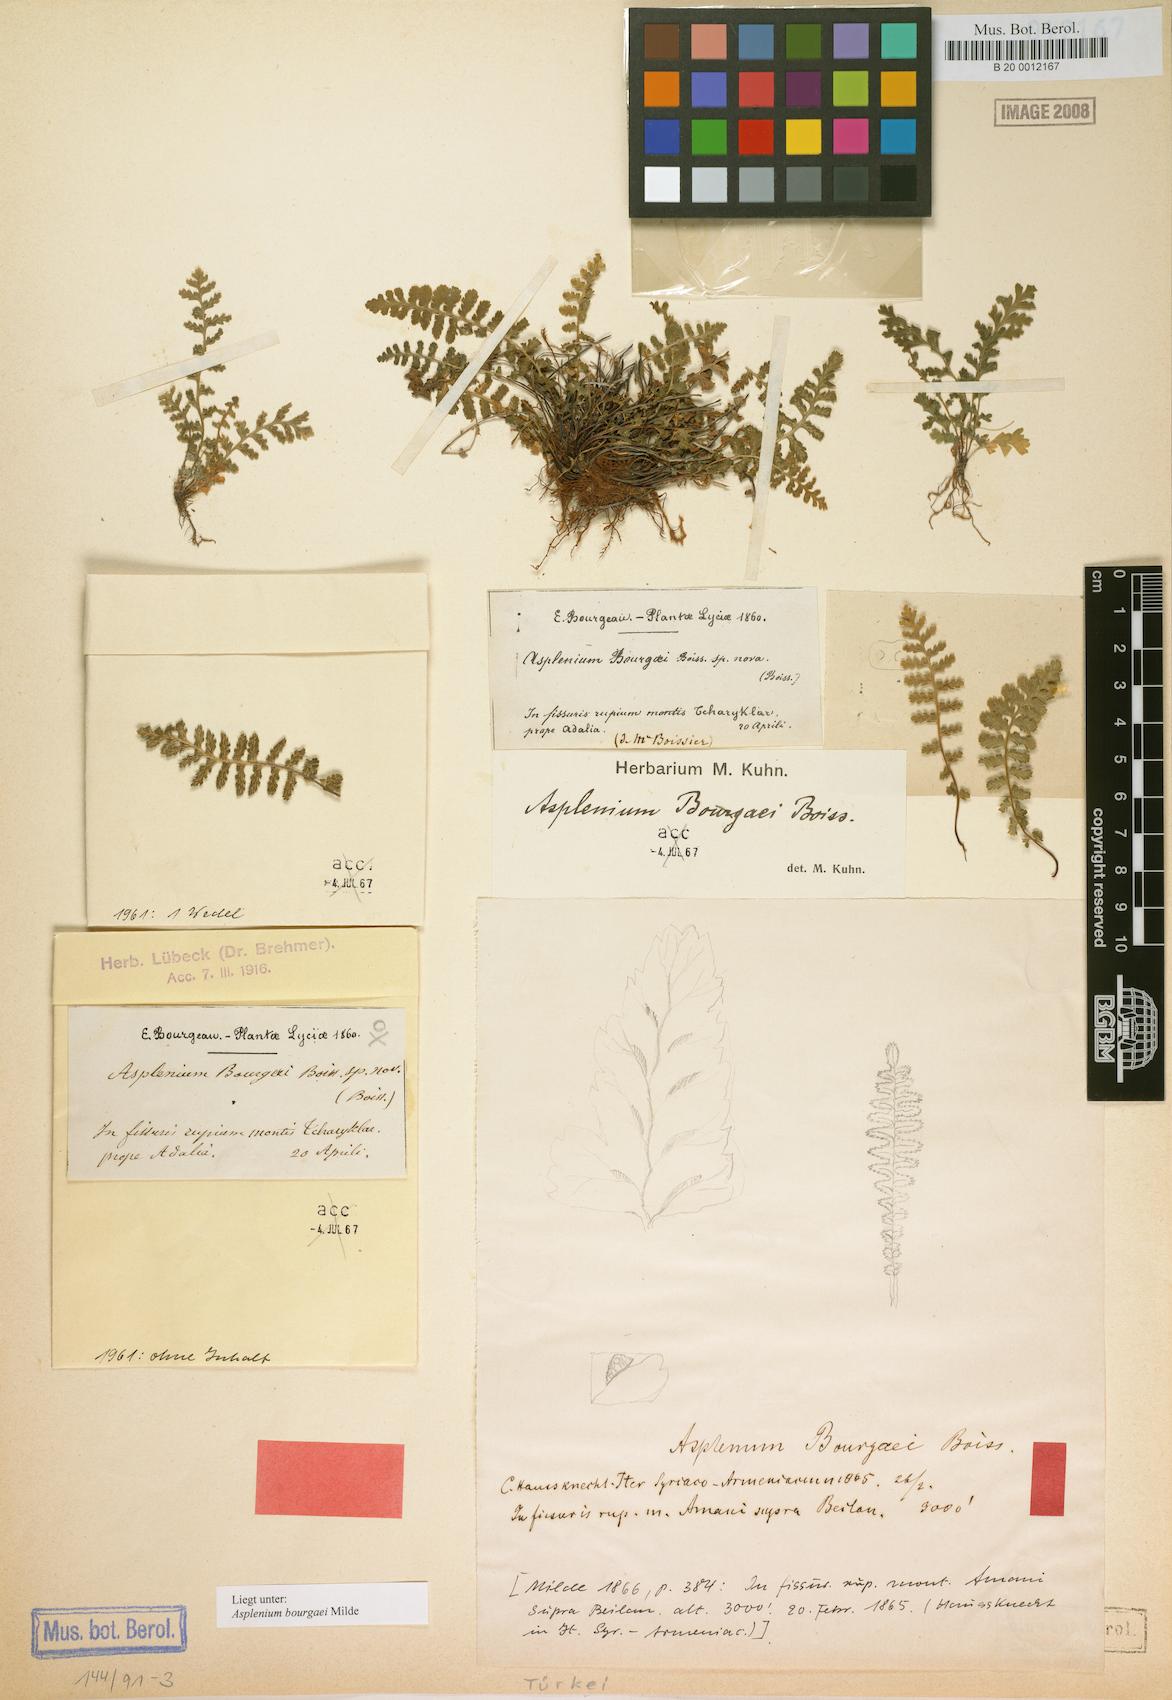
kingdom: Plantae
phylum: Tracheophyta
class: Polypodiopsida
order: Polypodiales
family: Aspleniaceae
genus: Asplenium
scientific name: Asplenium bourgaei
